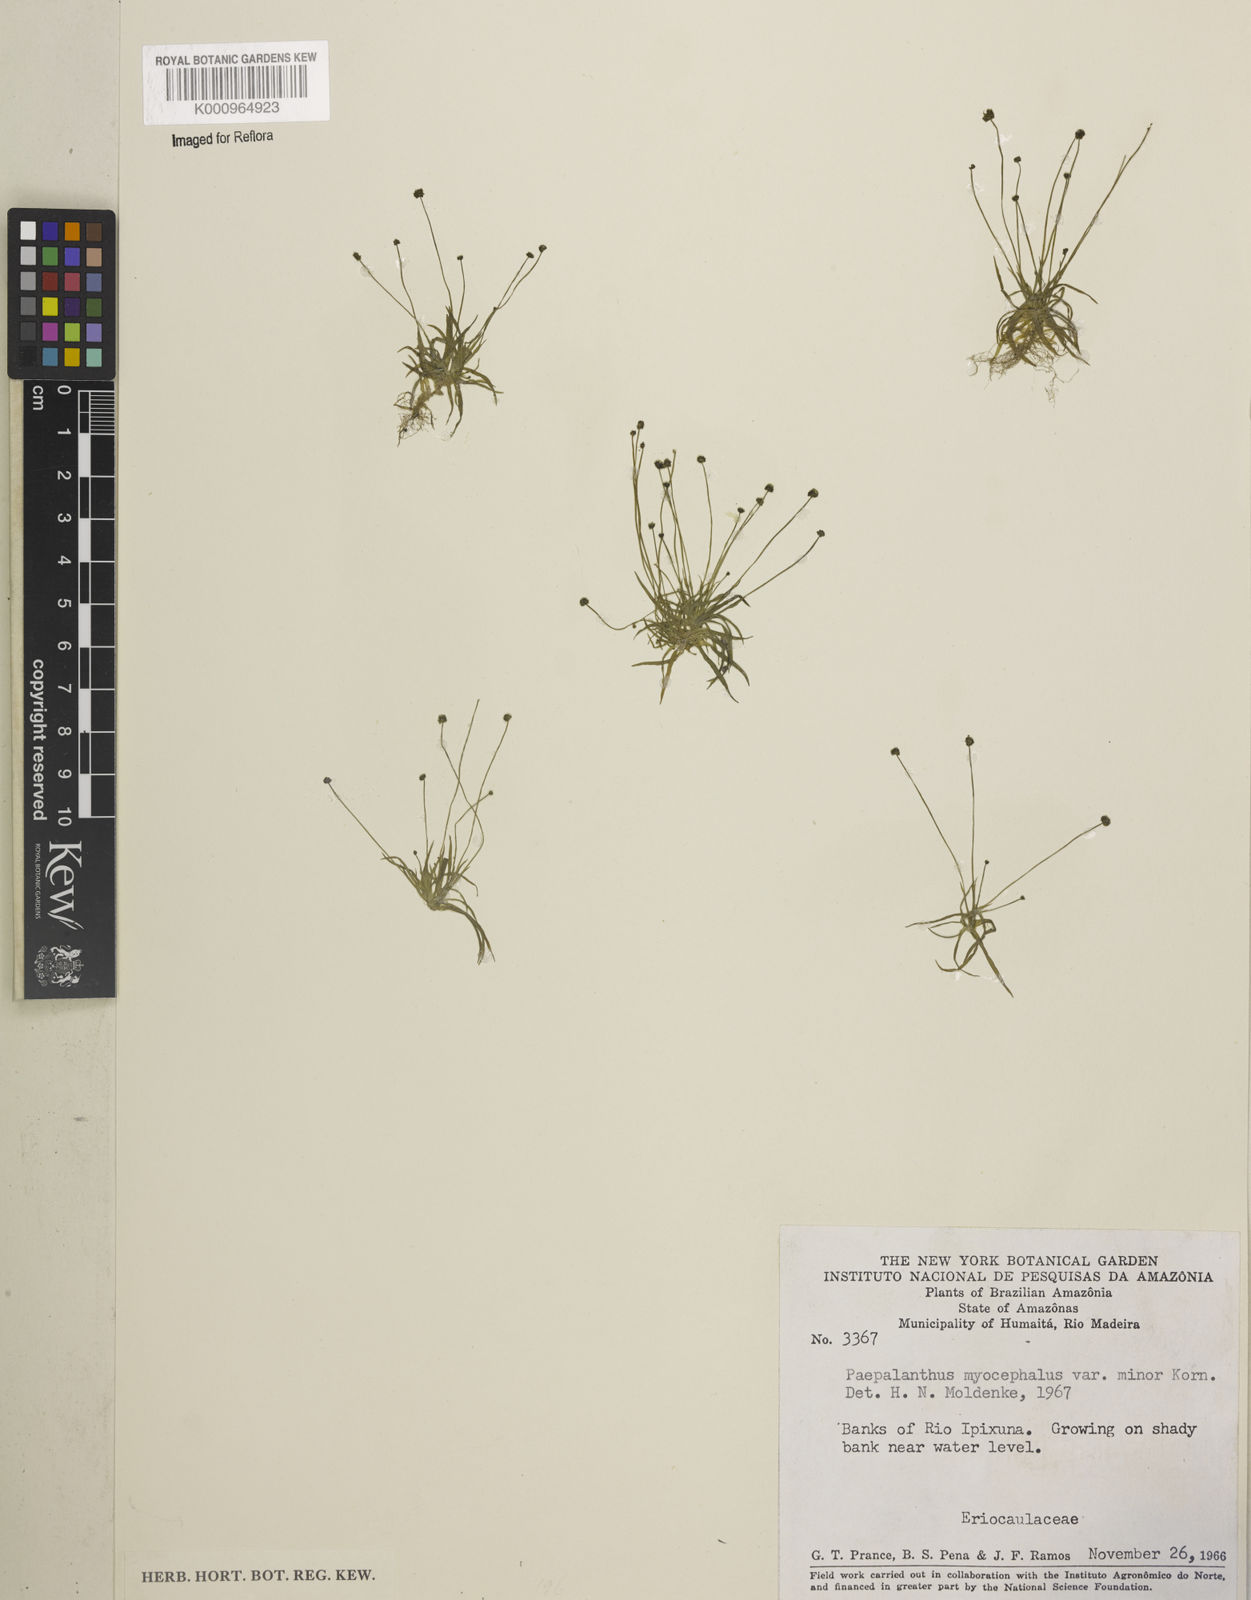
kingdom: Plantae
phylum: Tracheophyta
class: Liliopsida
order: Poales
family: Eriocaulaceae
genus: Paepalanthus
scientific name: Paepalanthus
